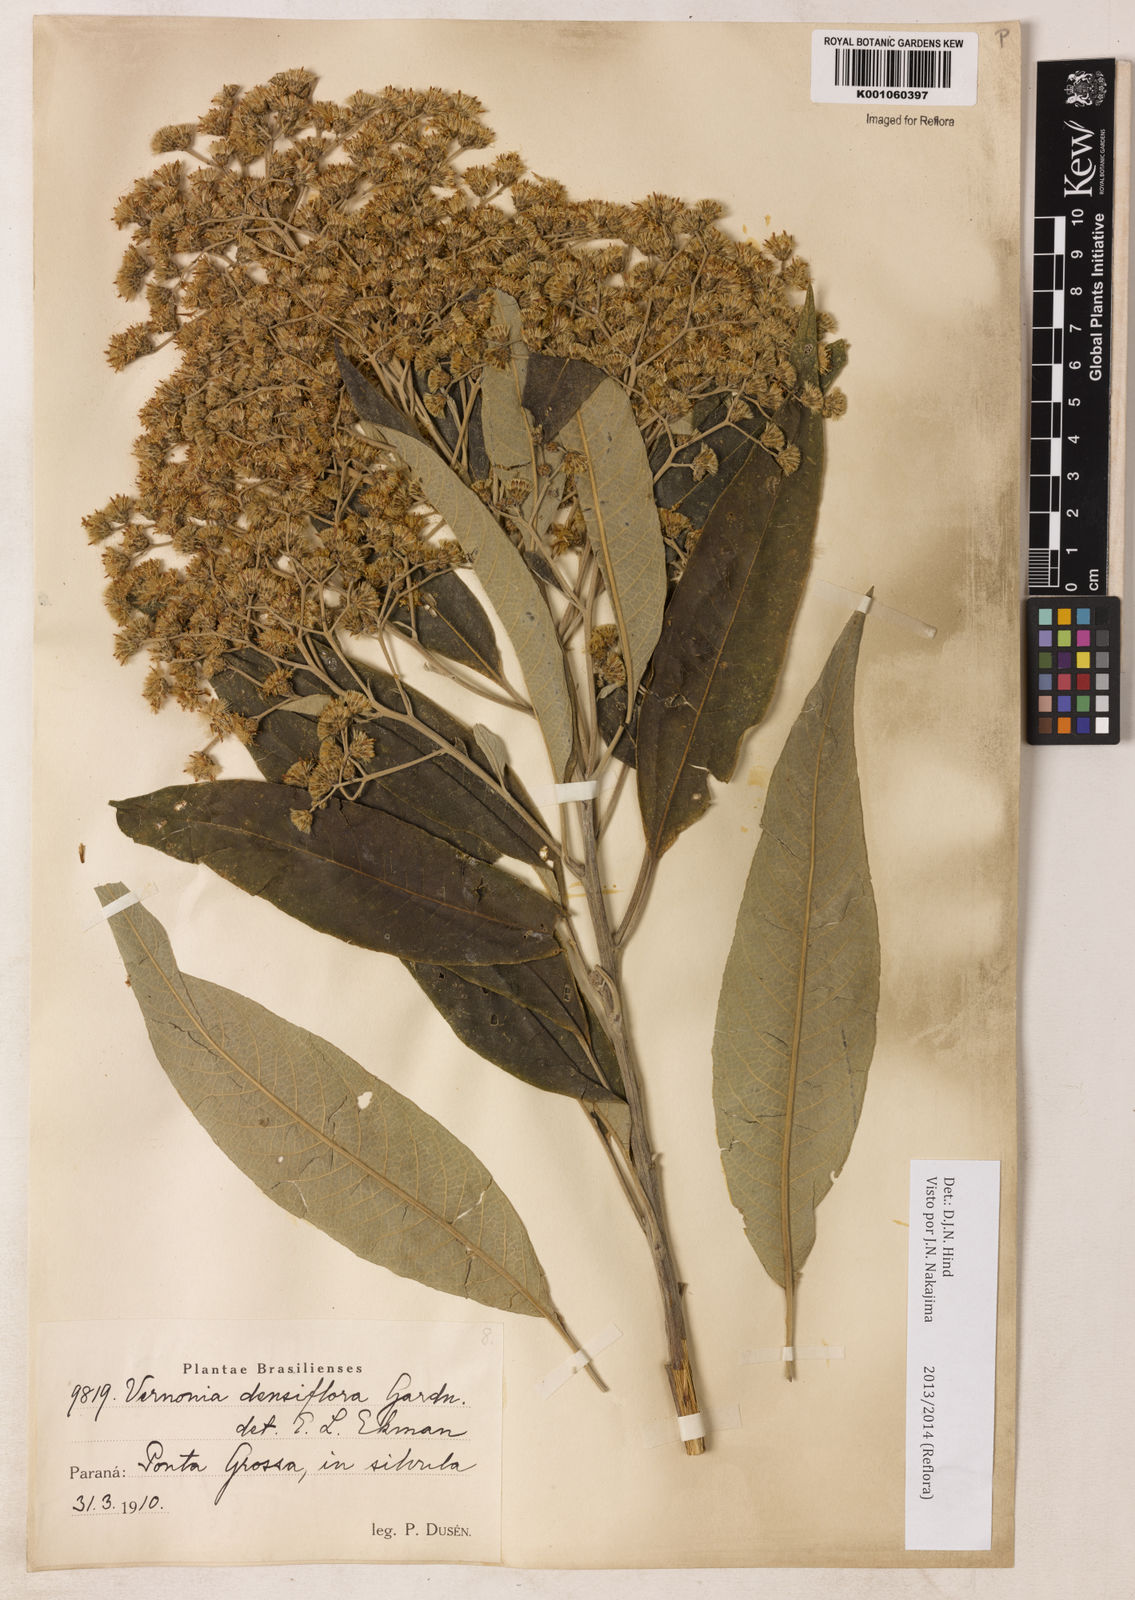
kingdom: Plantae
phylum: Tracheophyta
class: Magnoliopsida
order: Asterales
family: Asteraceae
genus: Vernonanthura
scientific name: Vernonanthura densiflora
